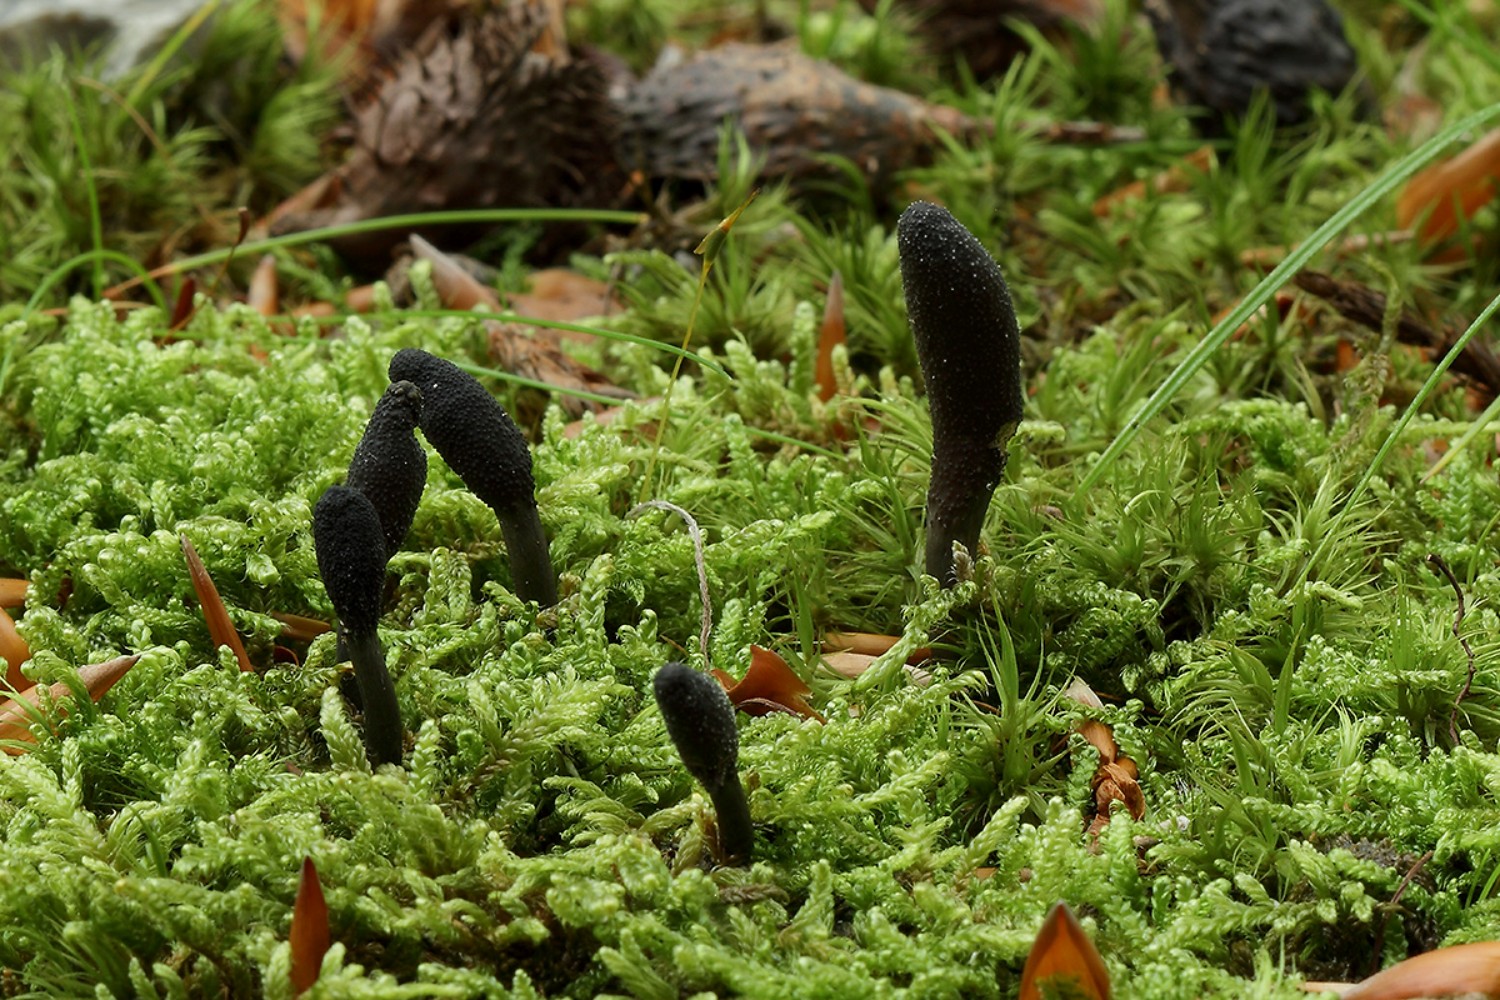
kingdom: Fungi
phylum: Ascomycota
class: Sordariomycetes
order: Hypocreales
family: Ophiocordycipitaceae
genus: Tolypocladium
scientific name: Tolypocladium ophioglossoides
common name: slank snyltekølle
